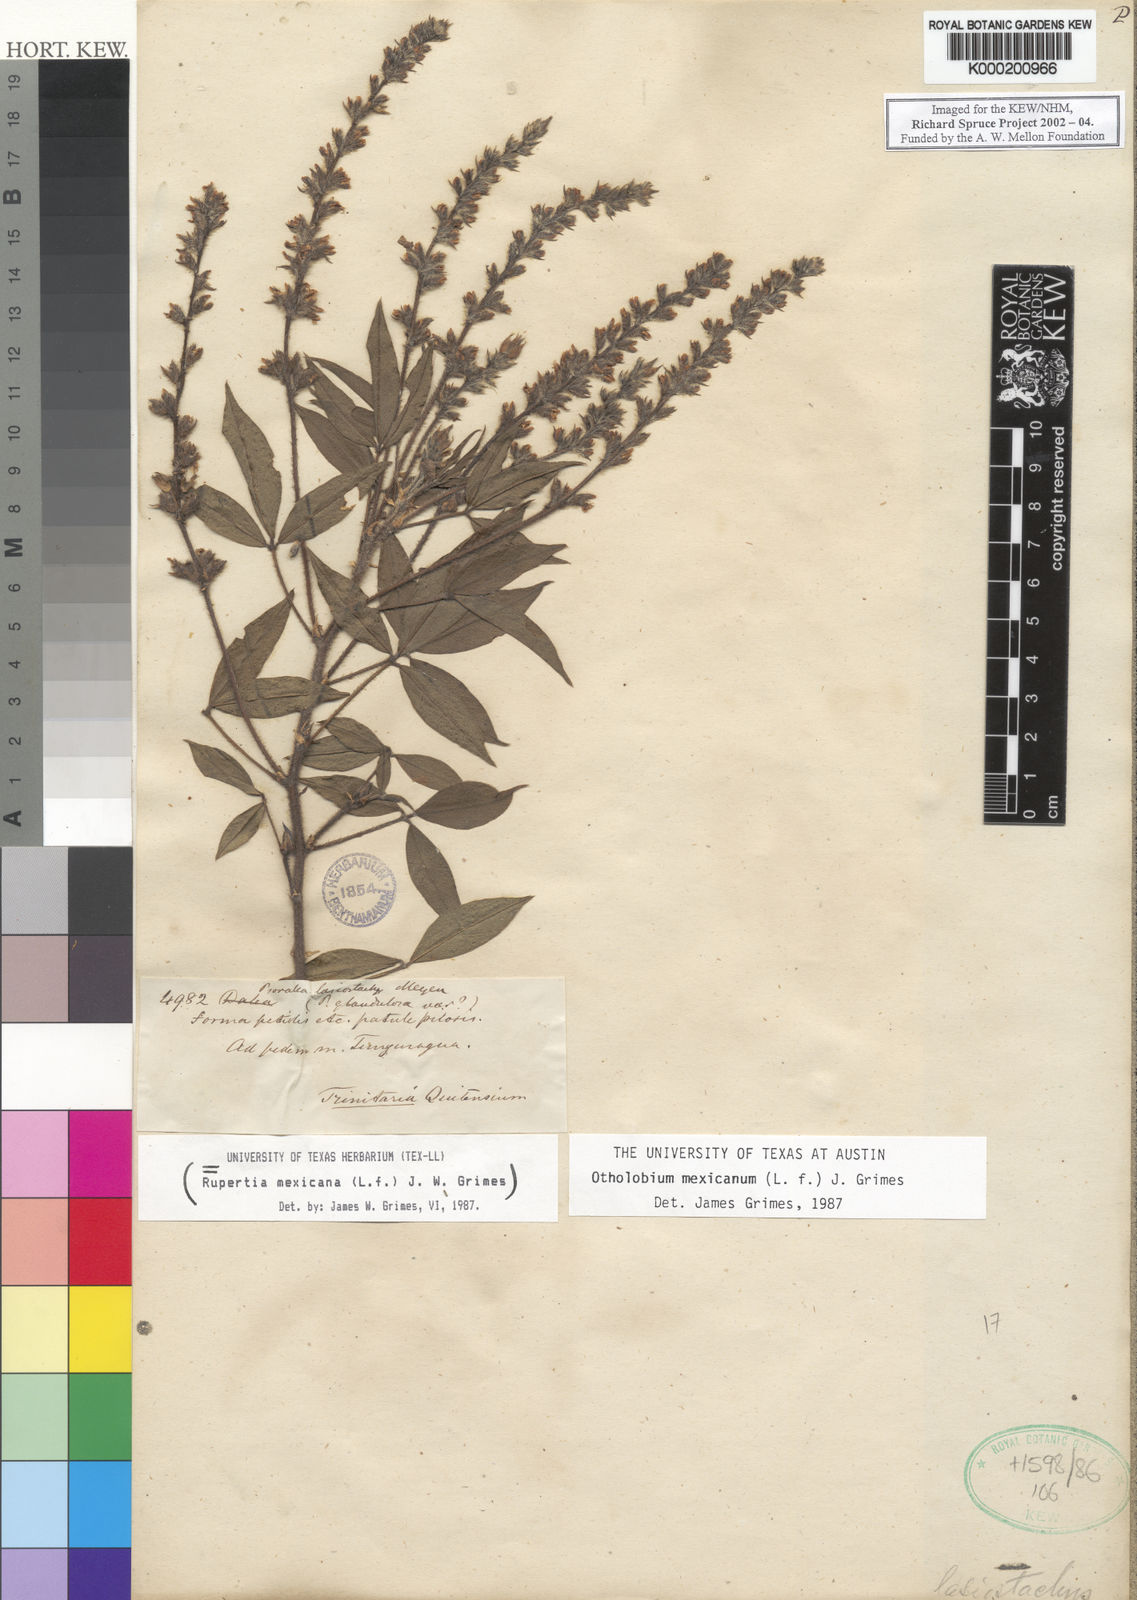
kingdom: Plantae
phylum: Tracheophyta
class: Magnoliopsida
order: Fabales
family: Fabaceae
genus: Psoralea
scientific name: Psoralea Otholobium mexicanum
